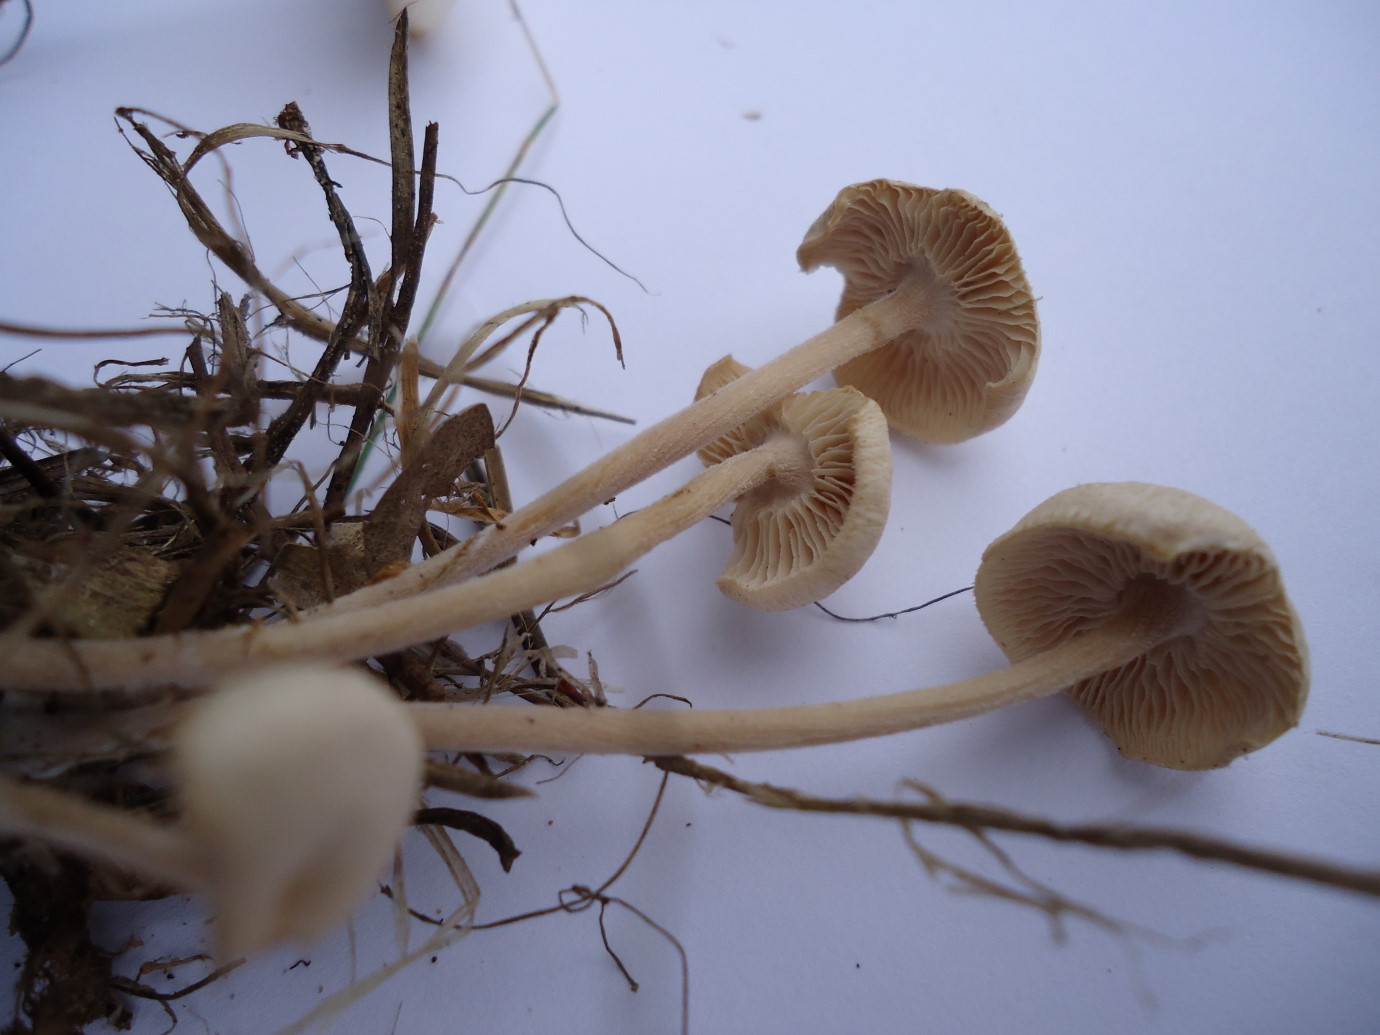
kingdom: Fungi
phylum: Basidiomycota
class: Agaricomycetes
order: Agaricales
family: Omphalotaceae
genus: Collybiopsis
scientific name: Collybiopsis confluens
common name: knippe-fladhat
